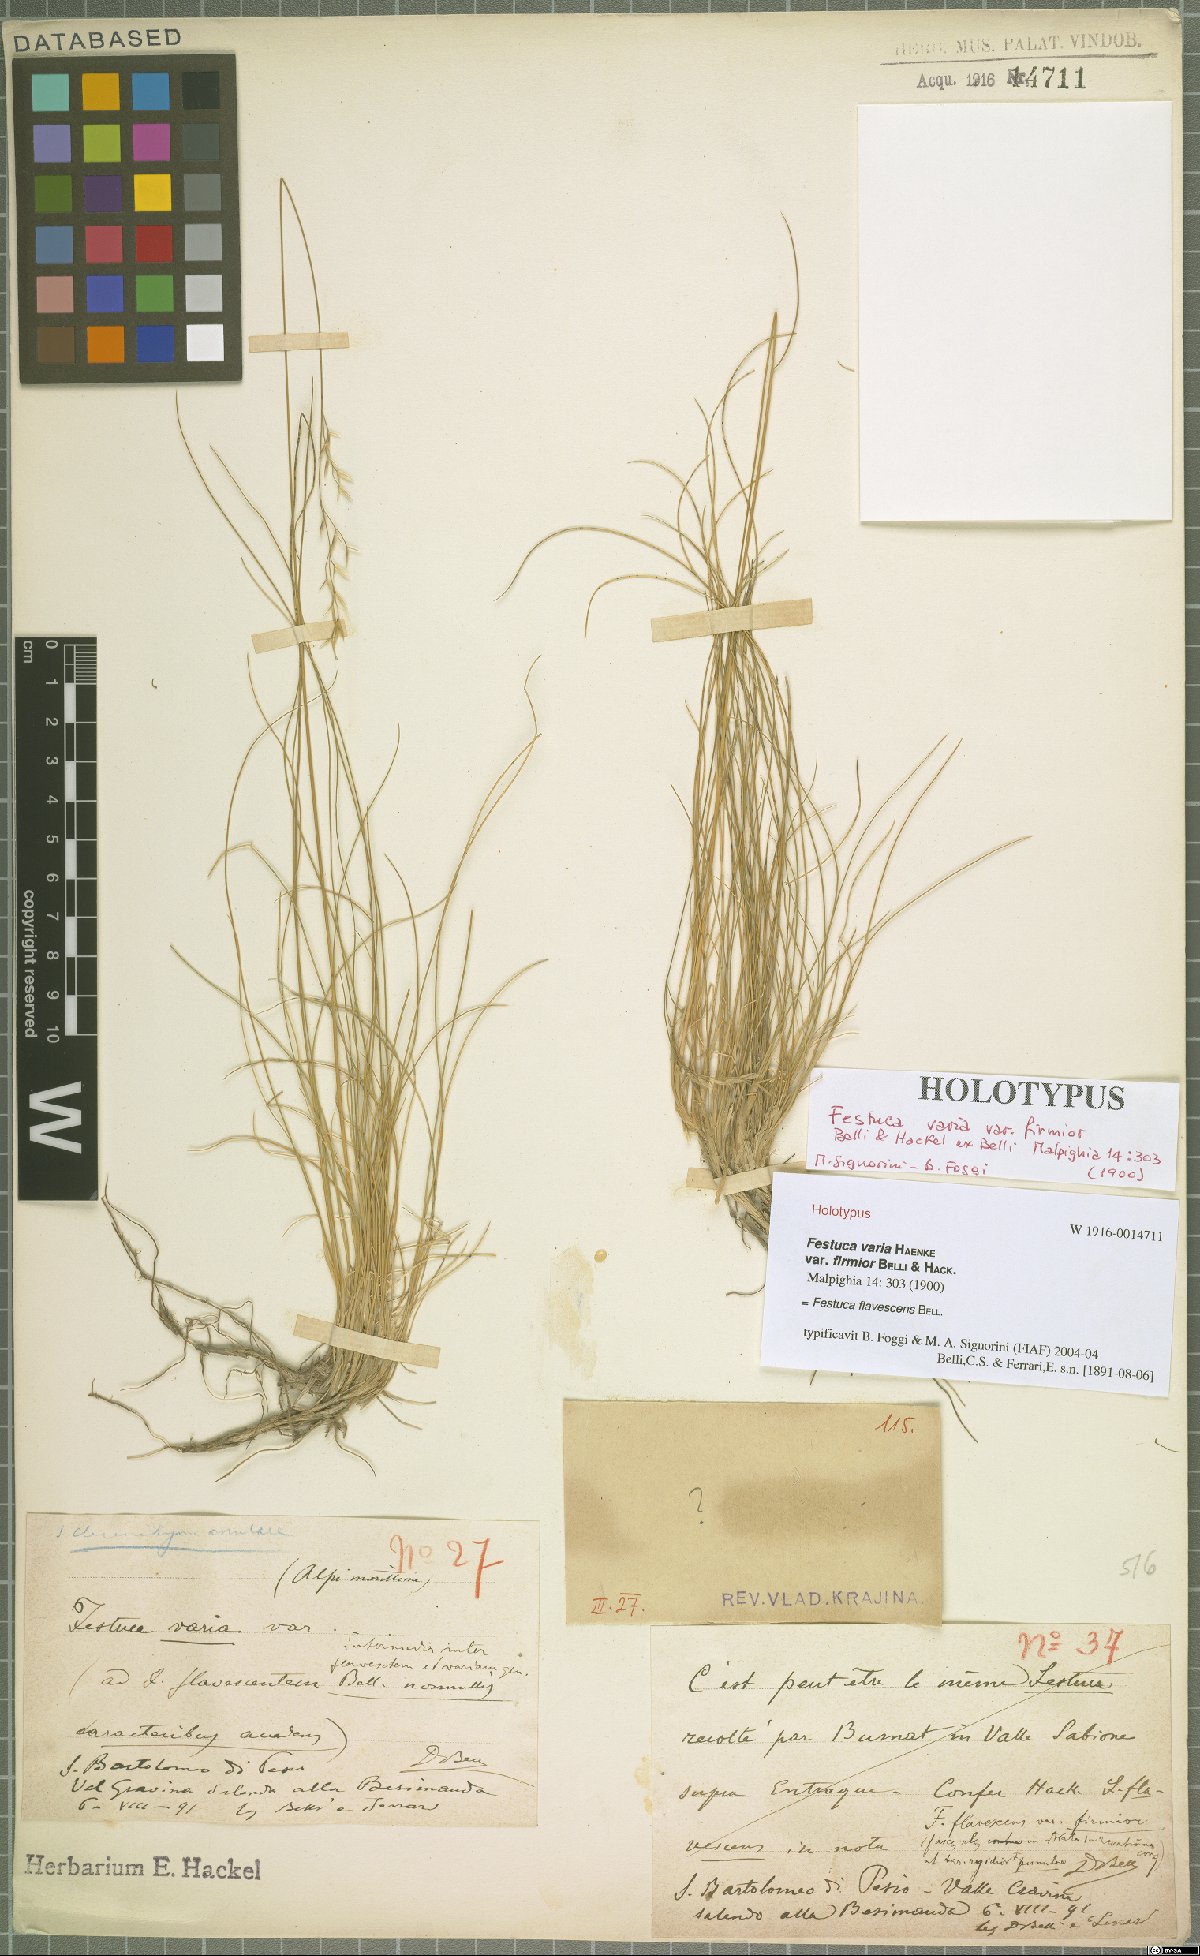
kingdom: Plantae
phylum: Tracheophyta
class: Liliopsida
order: Poales
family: Poaceae
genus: Festuca
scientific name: Festuca flavescens
